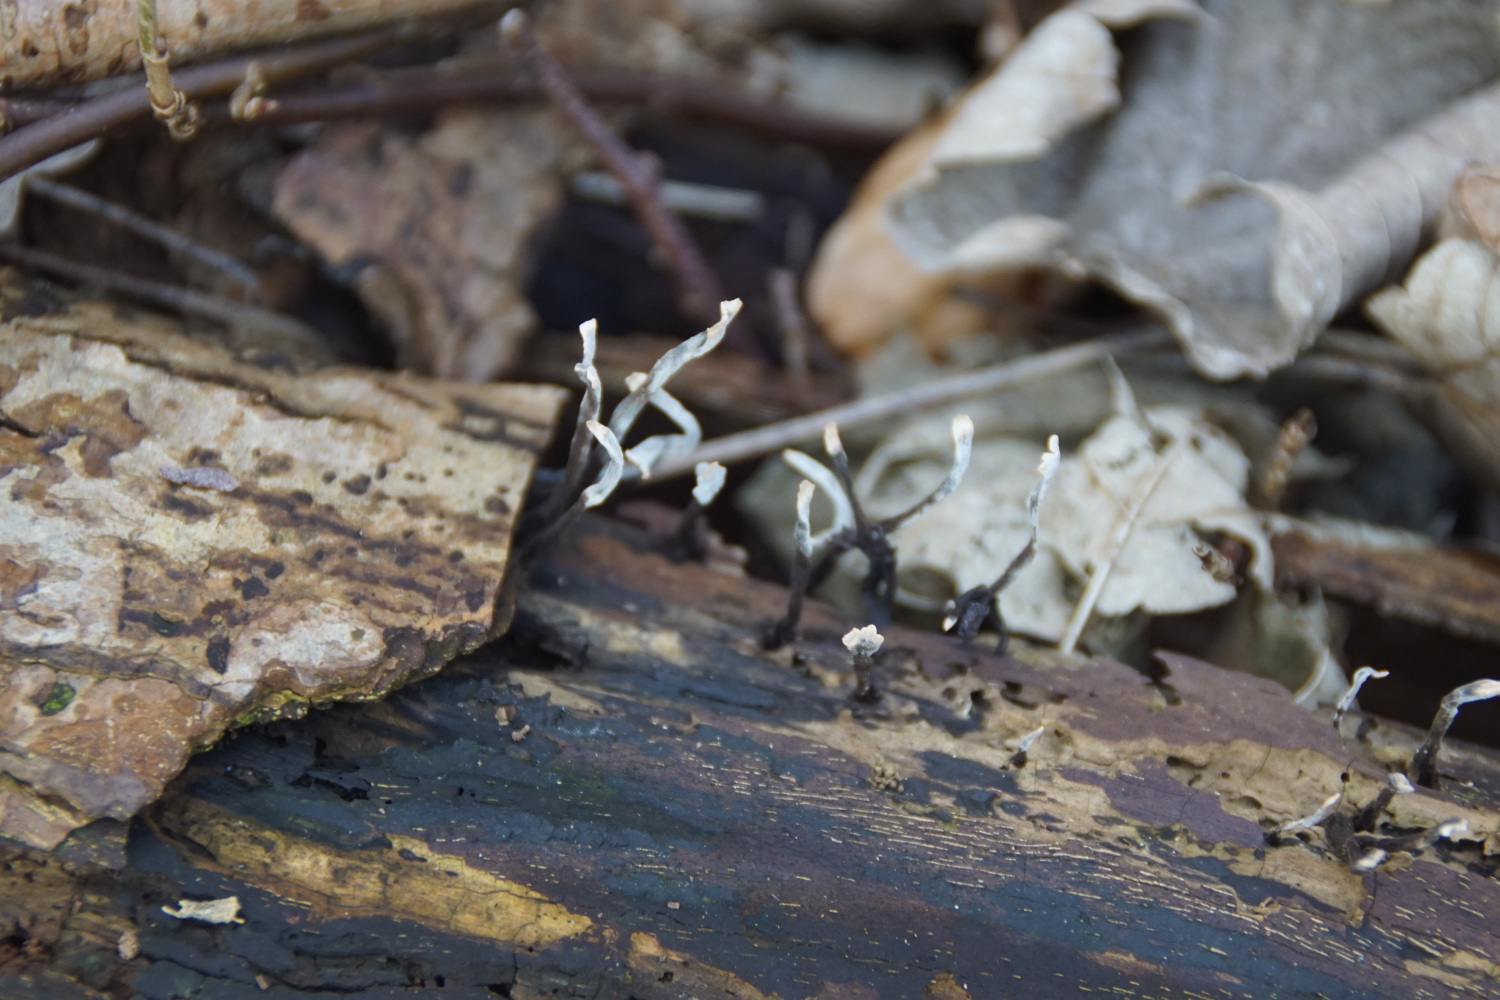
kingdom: Fungi
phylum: Ascomycota
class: Sordariomycetes
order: Xylariales
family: Xylariaceae
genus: Xylaria
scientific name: Xylaria hypoxylon
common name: grenet stødsvamp
